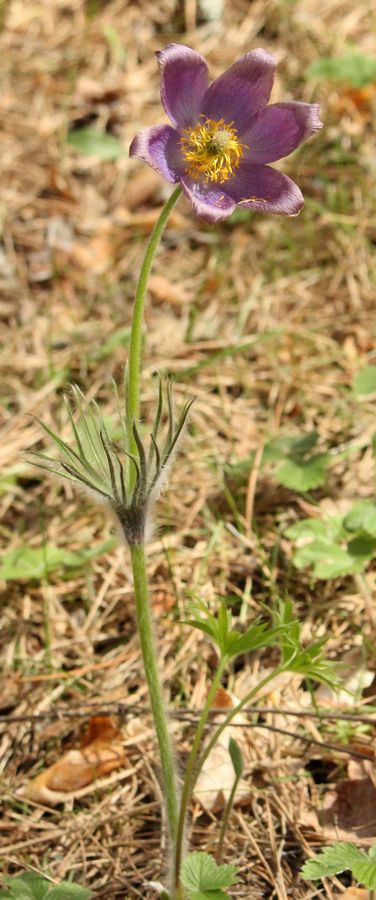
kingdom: Plantae
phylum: Tracheophyta
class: Magnoliopsida
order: Ranunculales
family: Ranunculaceae
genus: Pulsatilla
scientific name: Pulsatilla herba-somnii
